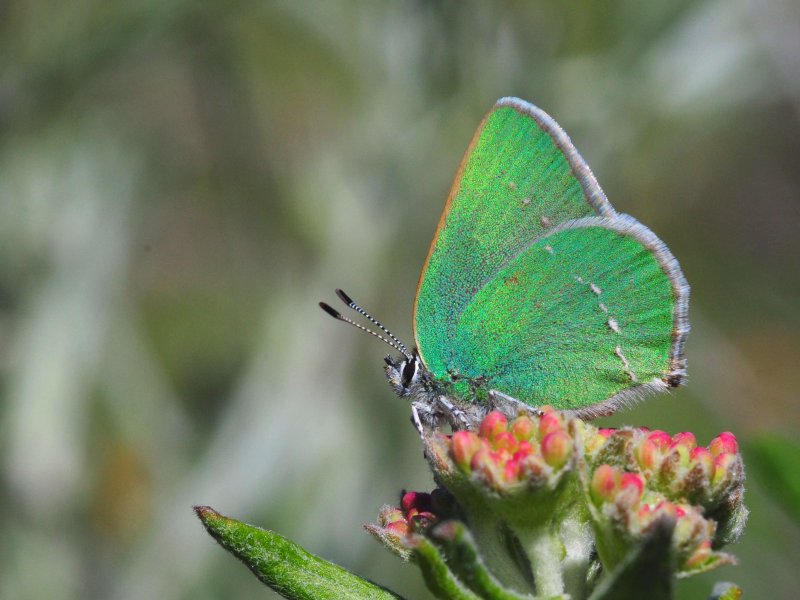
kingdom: Animalia
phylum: Arthropoda
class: Insecta
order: Lepidoptera
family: Lycaenidae
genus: Callophrys
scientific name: Callophrys affinis
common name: Western Green Hairstreak
